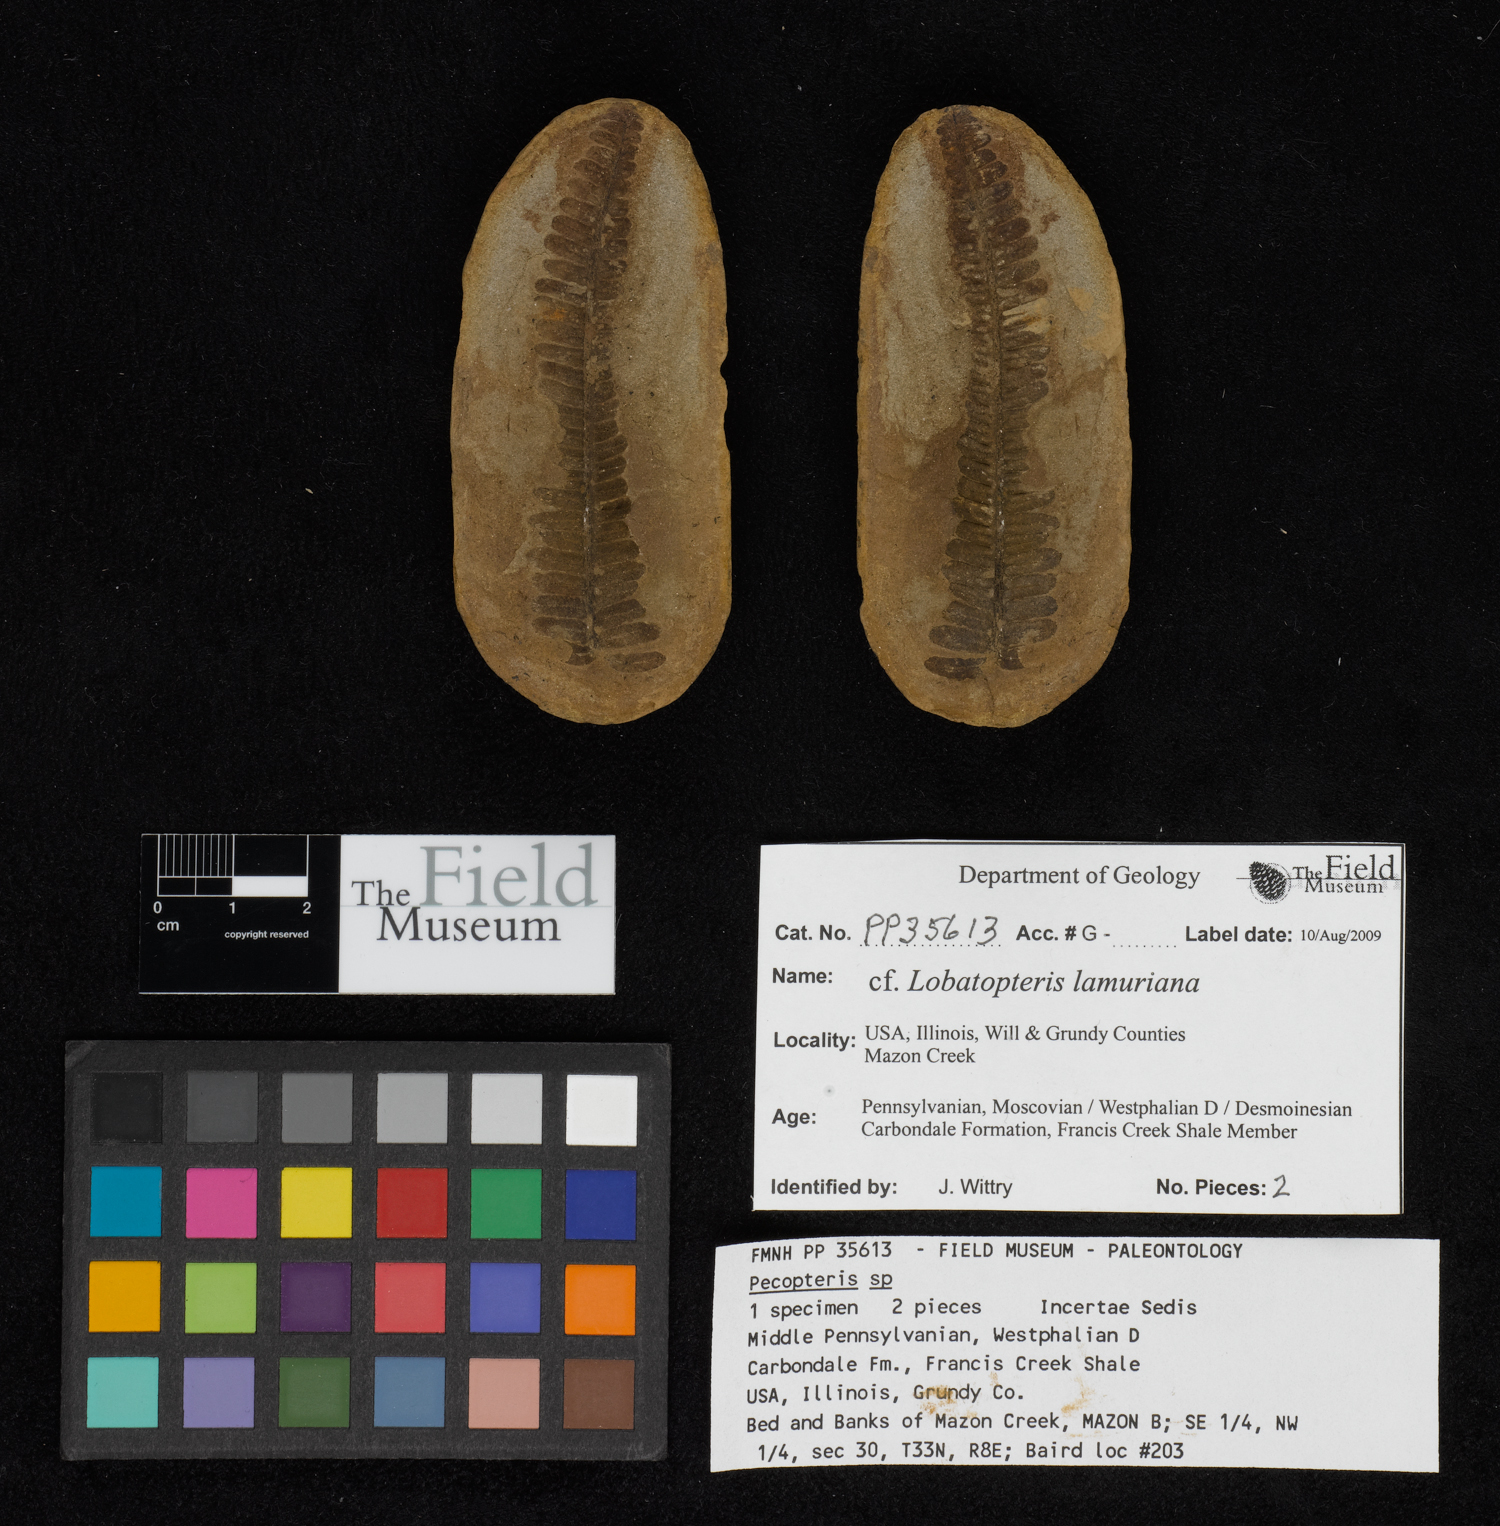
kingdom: Plantae
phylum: Tracheophyta
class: Polypodiopsida
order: Marattiales
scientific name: Marattiales
